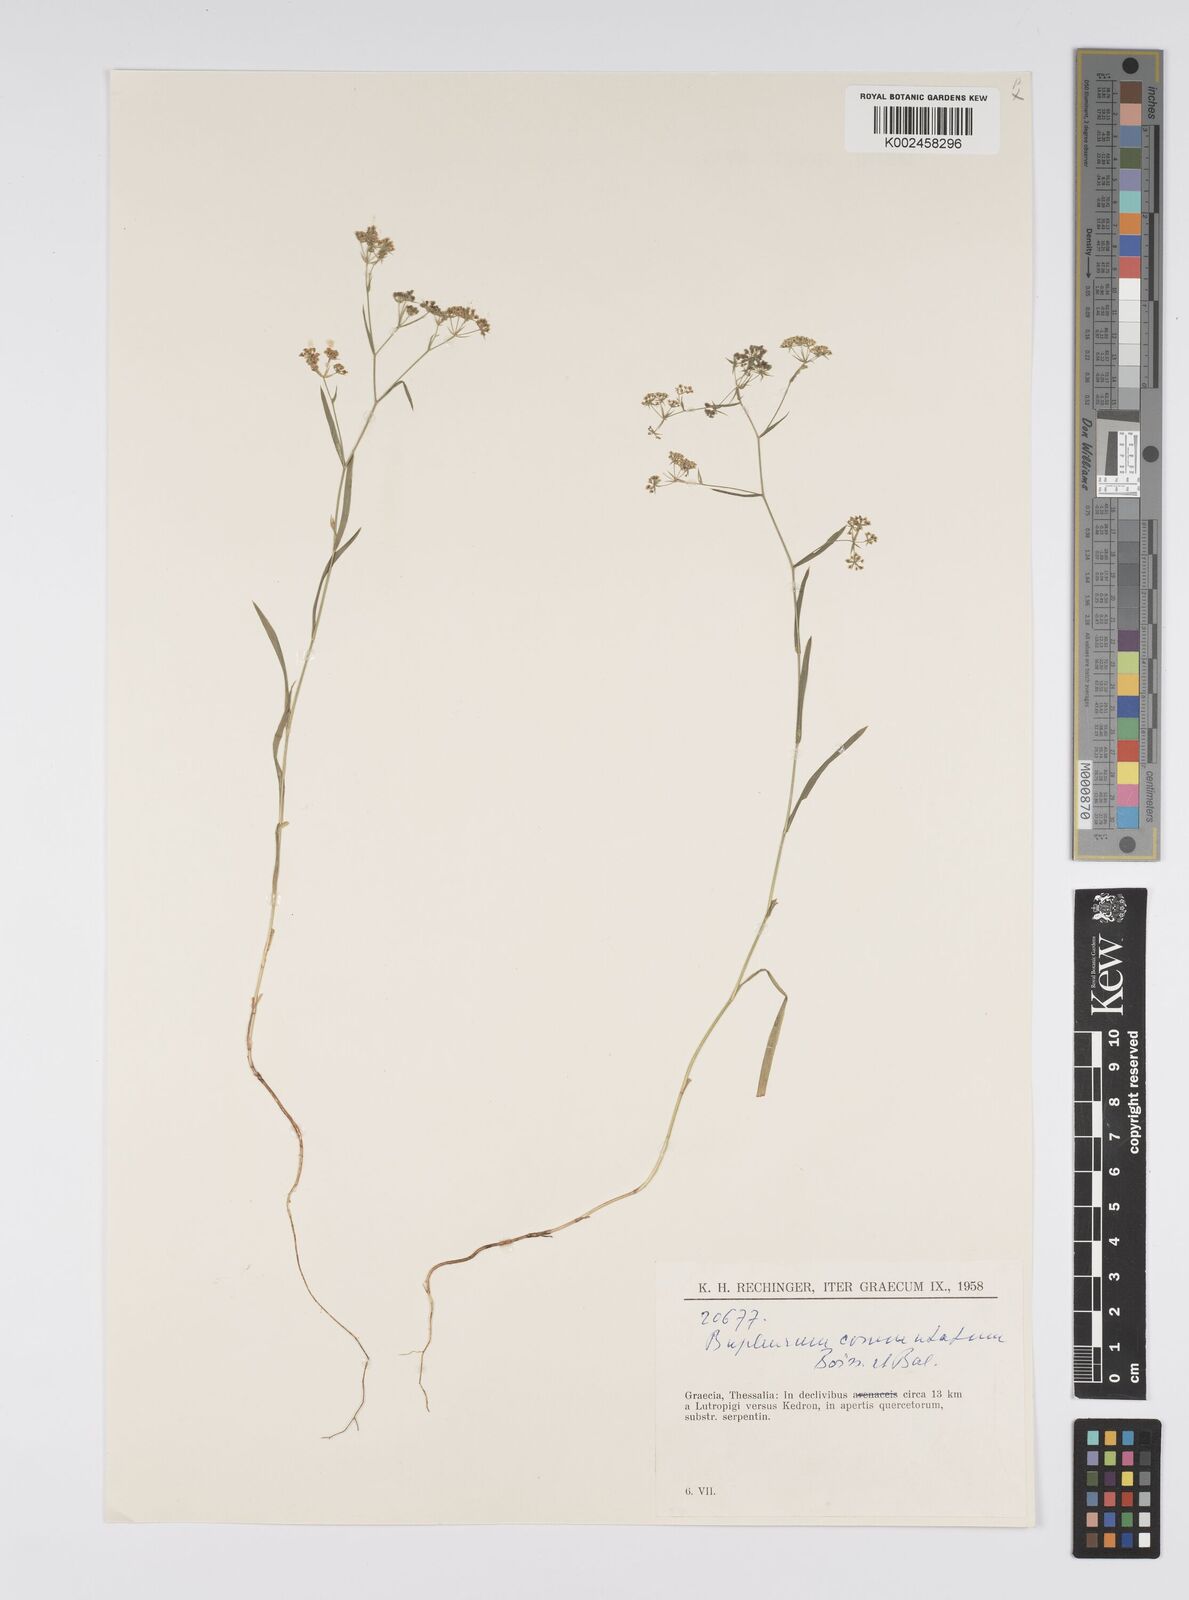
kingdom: Plantae
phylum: Tracheophyta
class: Magnoliopsida
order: Apiales
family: Apiaceae
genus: Bupleurum
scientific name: Bupleurum commutatum
